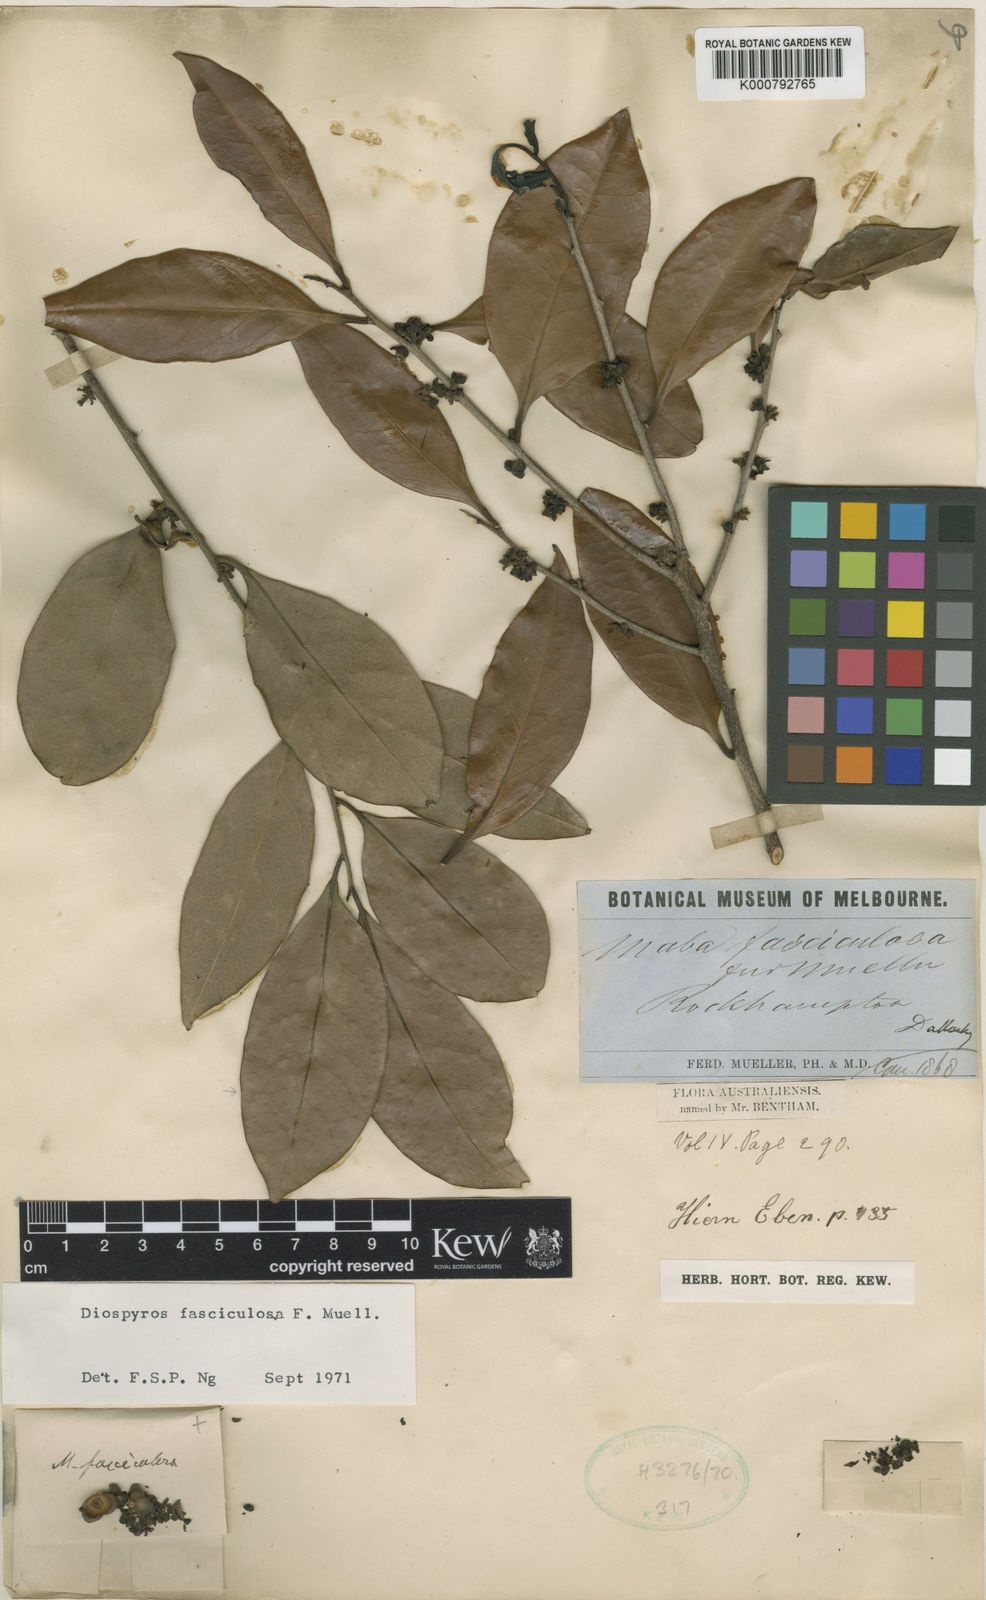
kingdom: Plantae
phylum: Tracheophyta
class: Magnoliopsida
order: Ericales
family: Ebenaceae
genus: Diospyros
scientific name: Diospyros fasciculosa
